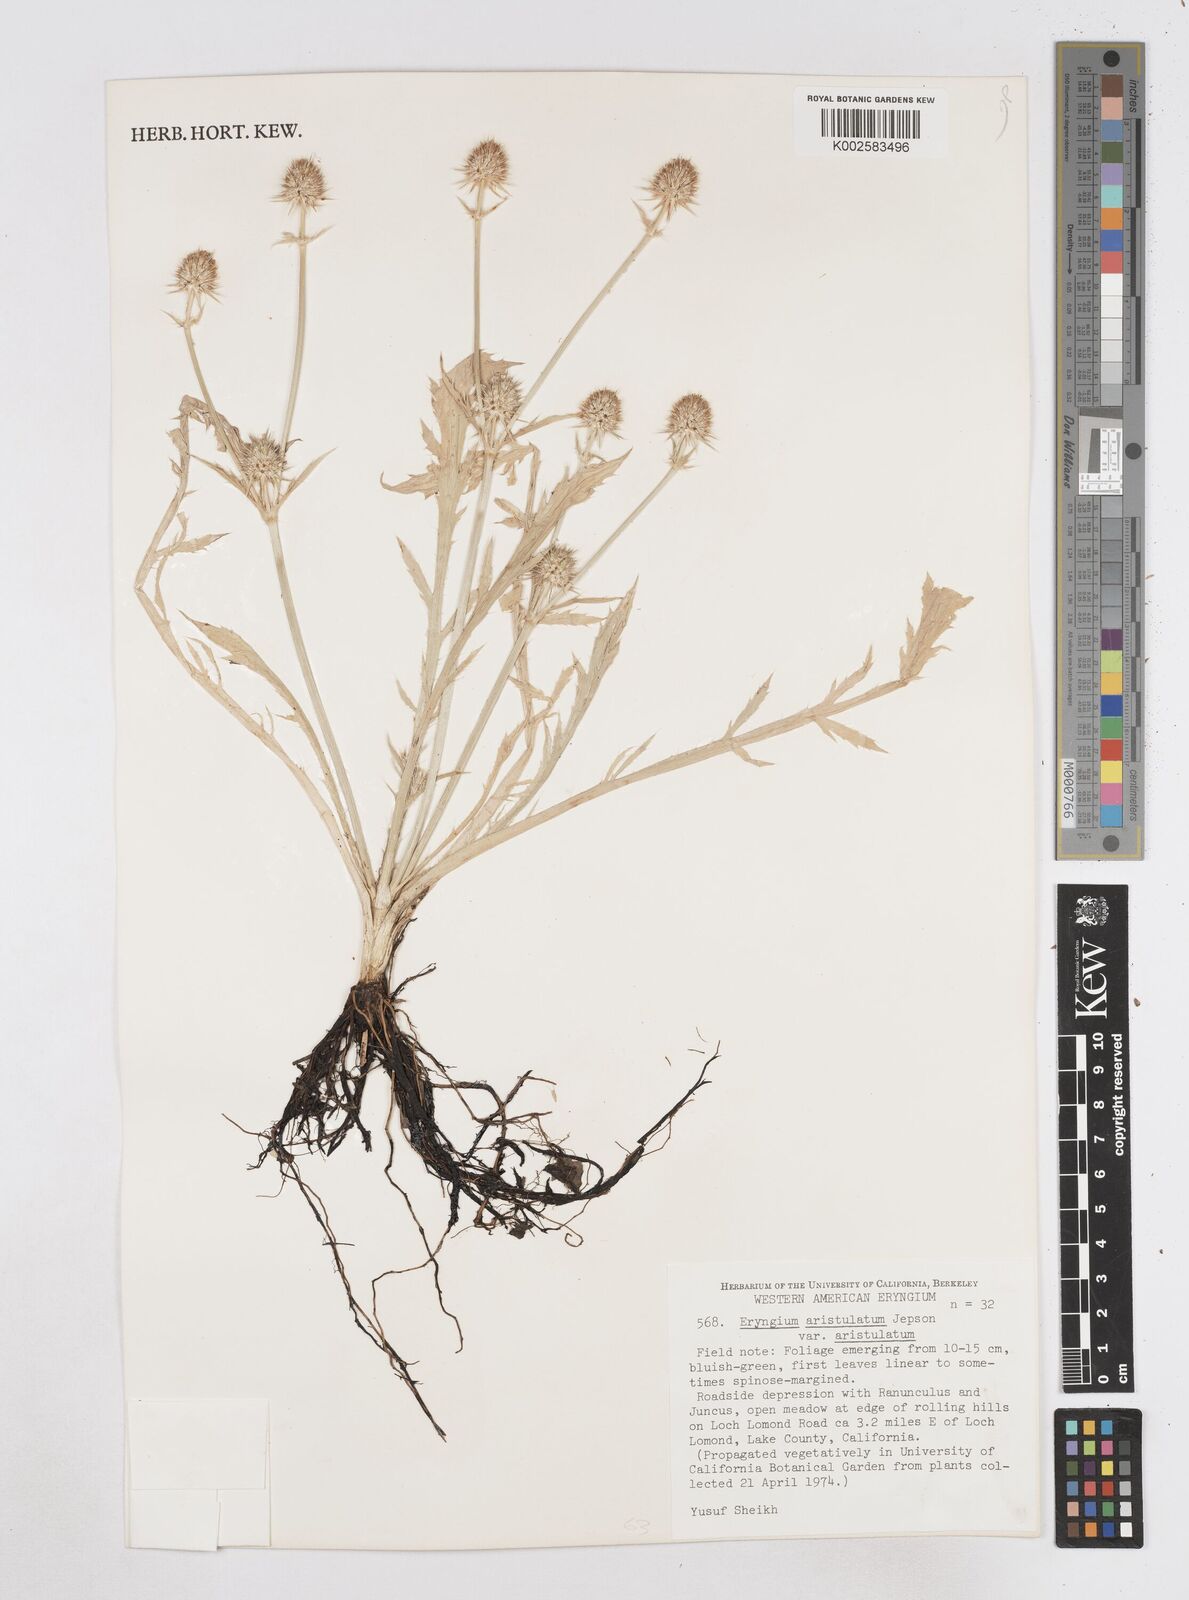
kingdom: Plantae
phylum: Tracheophyta
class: Magnoliopsida
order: Apiales
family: Apiaceae
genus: Eryngium
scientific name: Eryngium aristulatum
